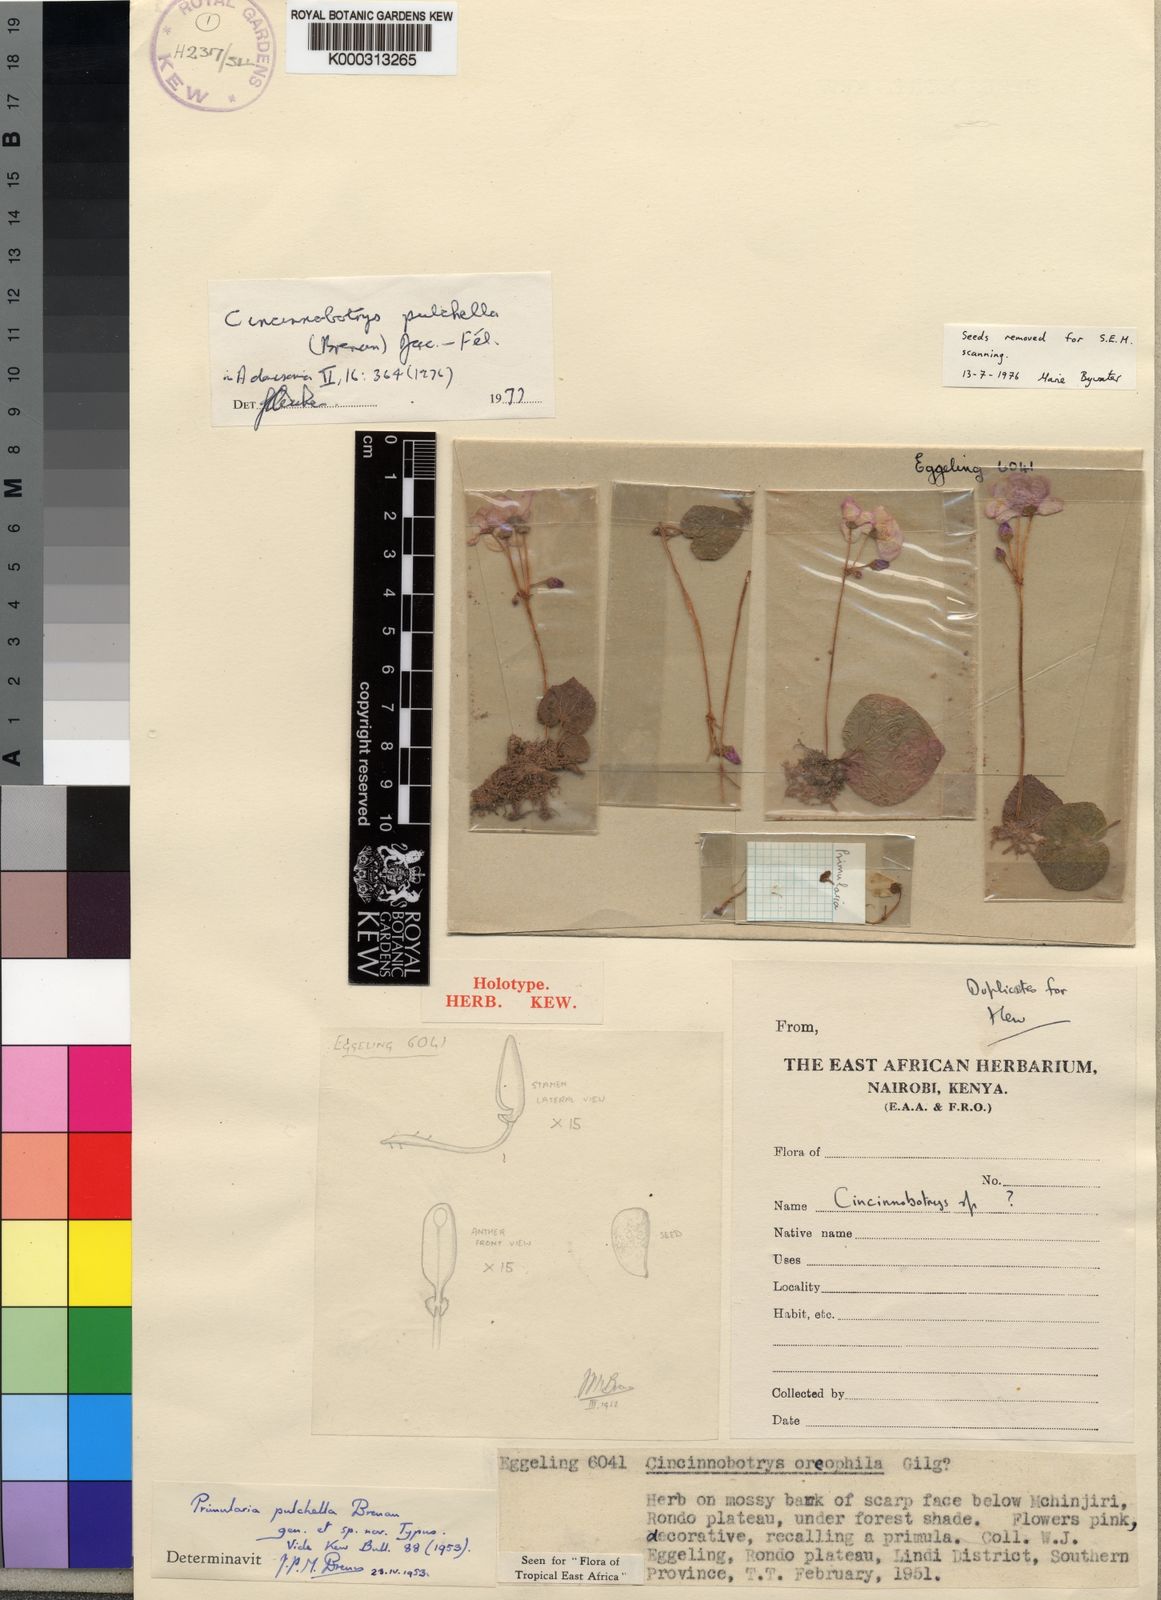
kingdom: Plantae
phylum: Tracheophyta
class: Magnoliopsida
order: Myrtales
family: Melastomataceae
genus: Cincinnobotrys
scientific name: Cincinnobotrys
